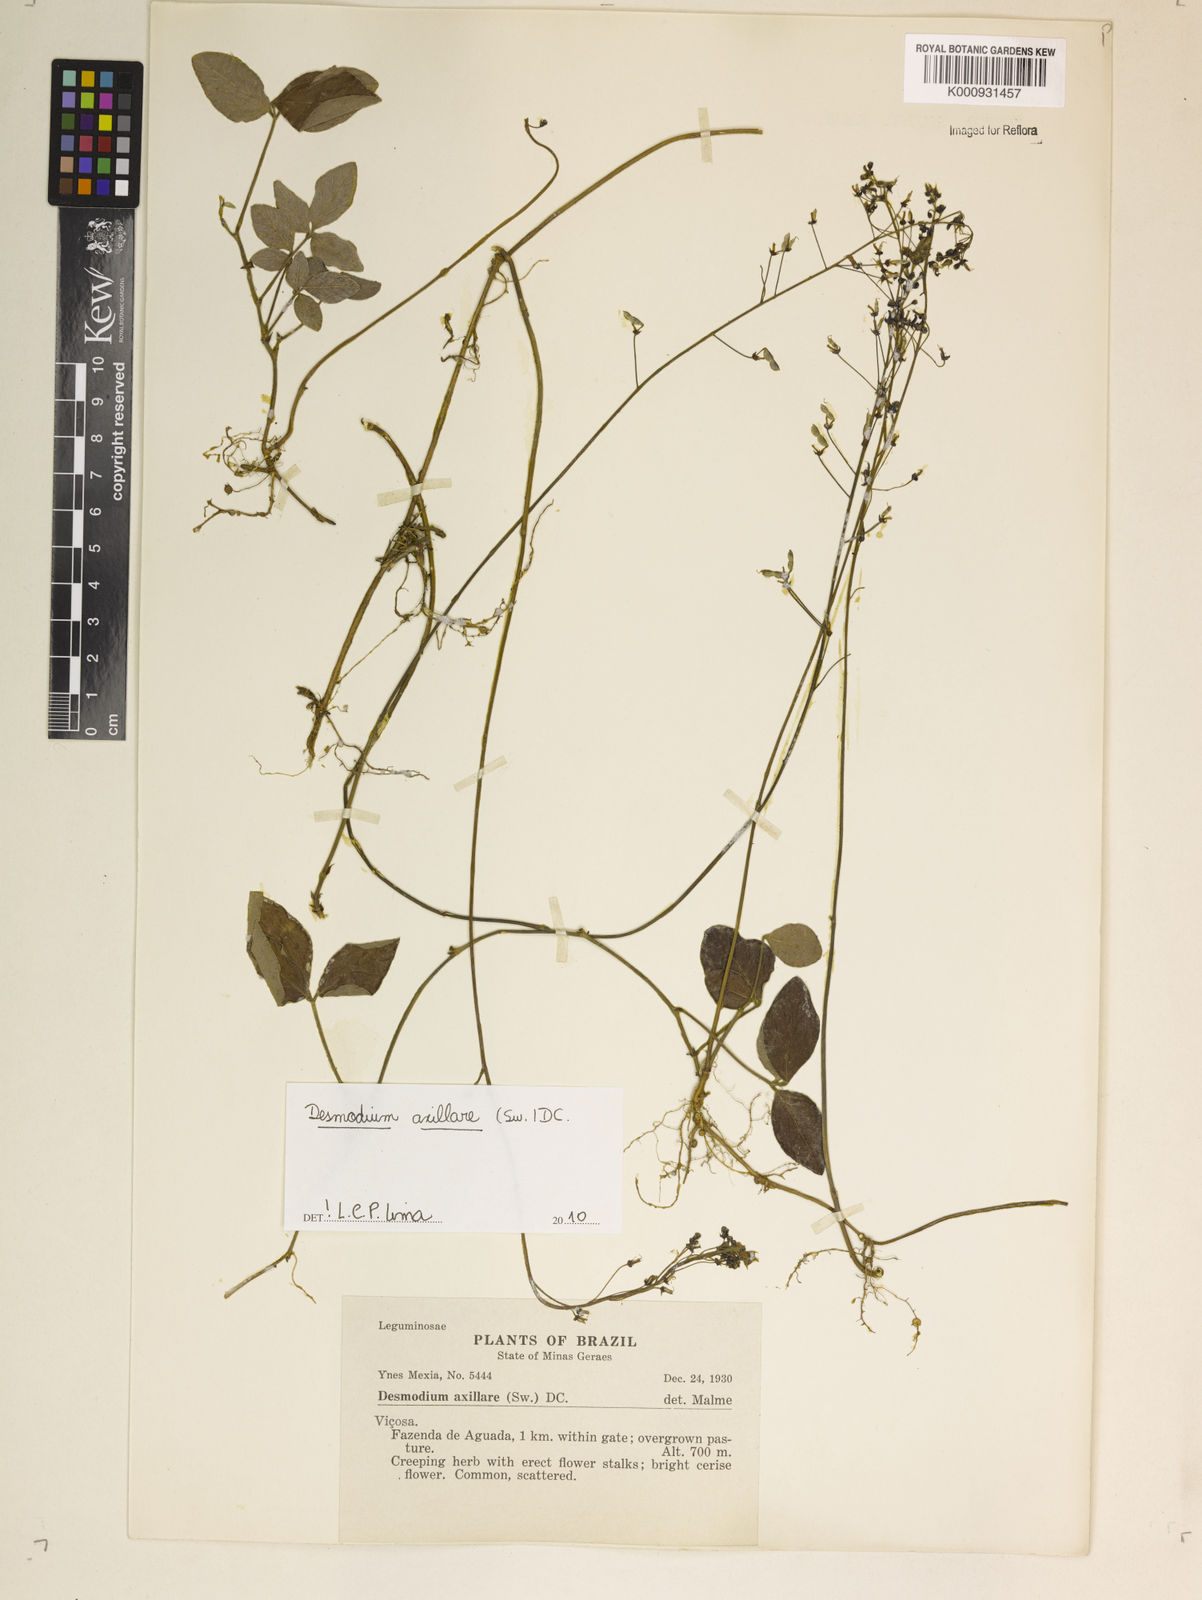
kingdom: Plantae
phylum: Tracheophyta
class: Magnoliopsida
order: Fabales
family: Fabaceae
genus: Desmodium
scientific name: Desmodium axillare
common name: Wire with
